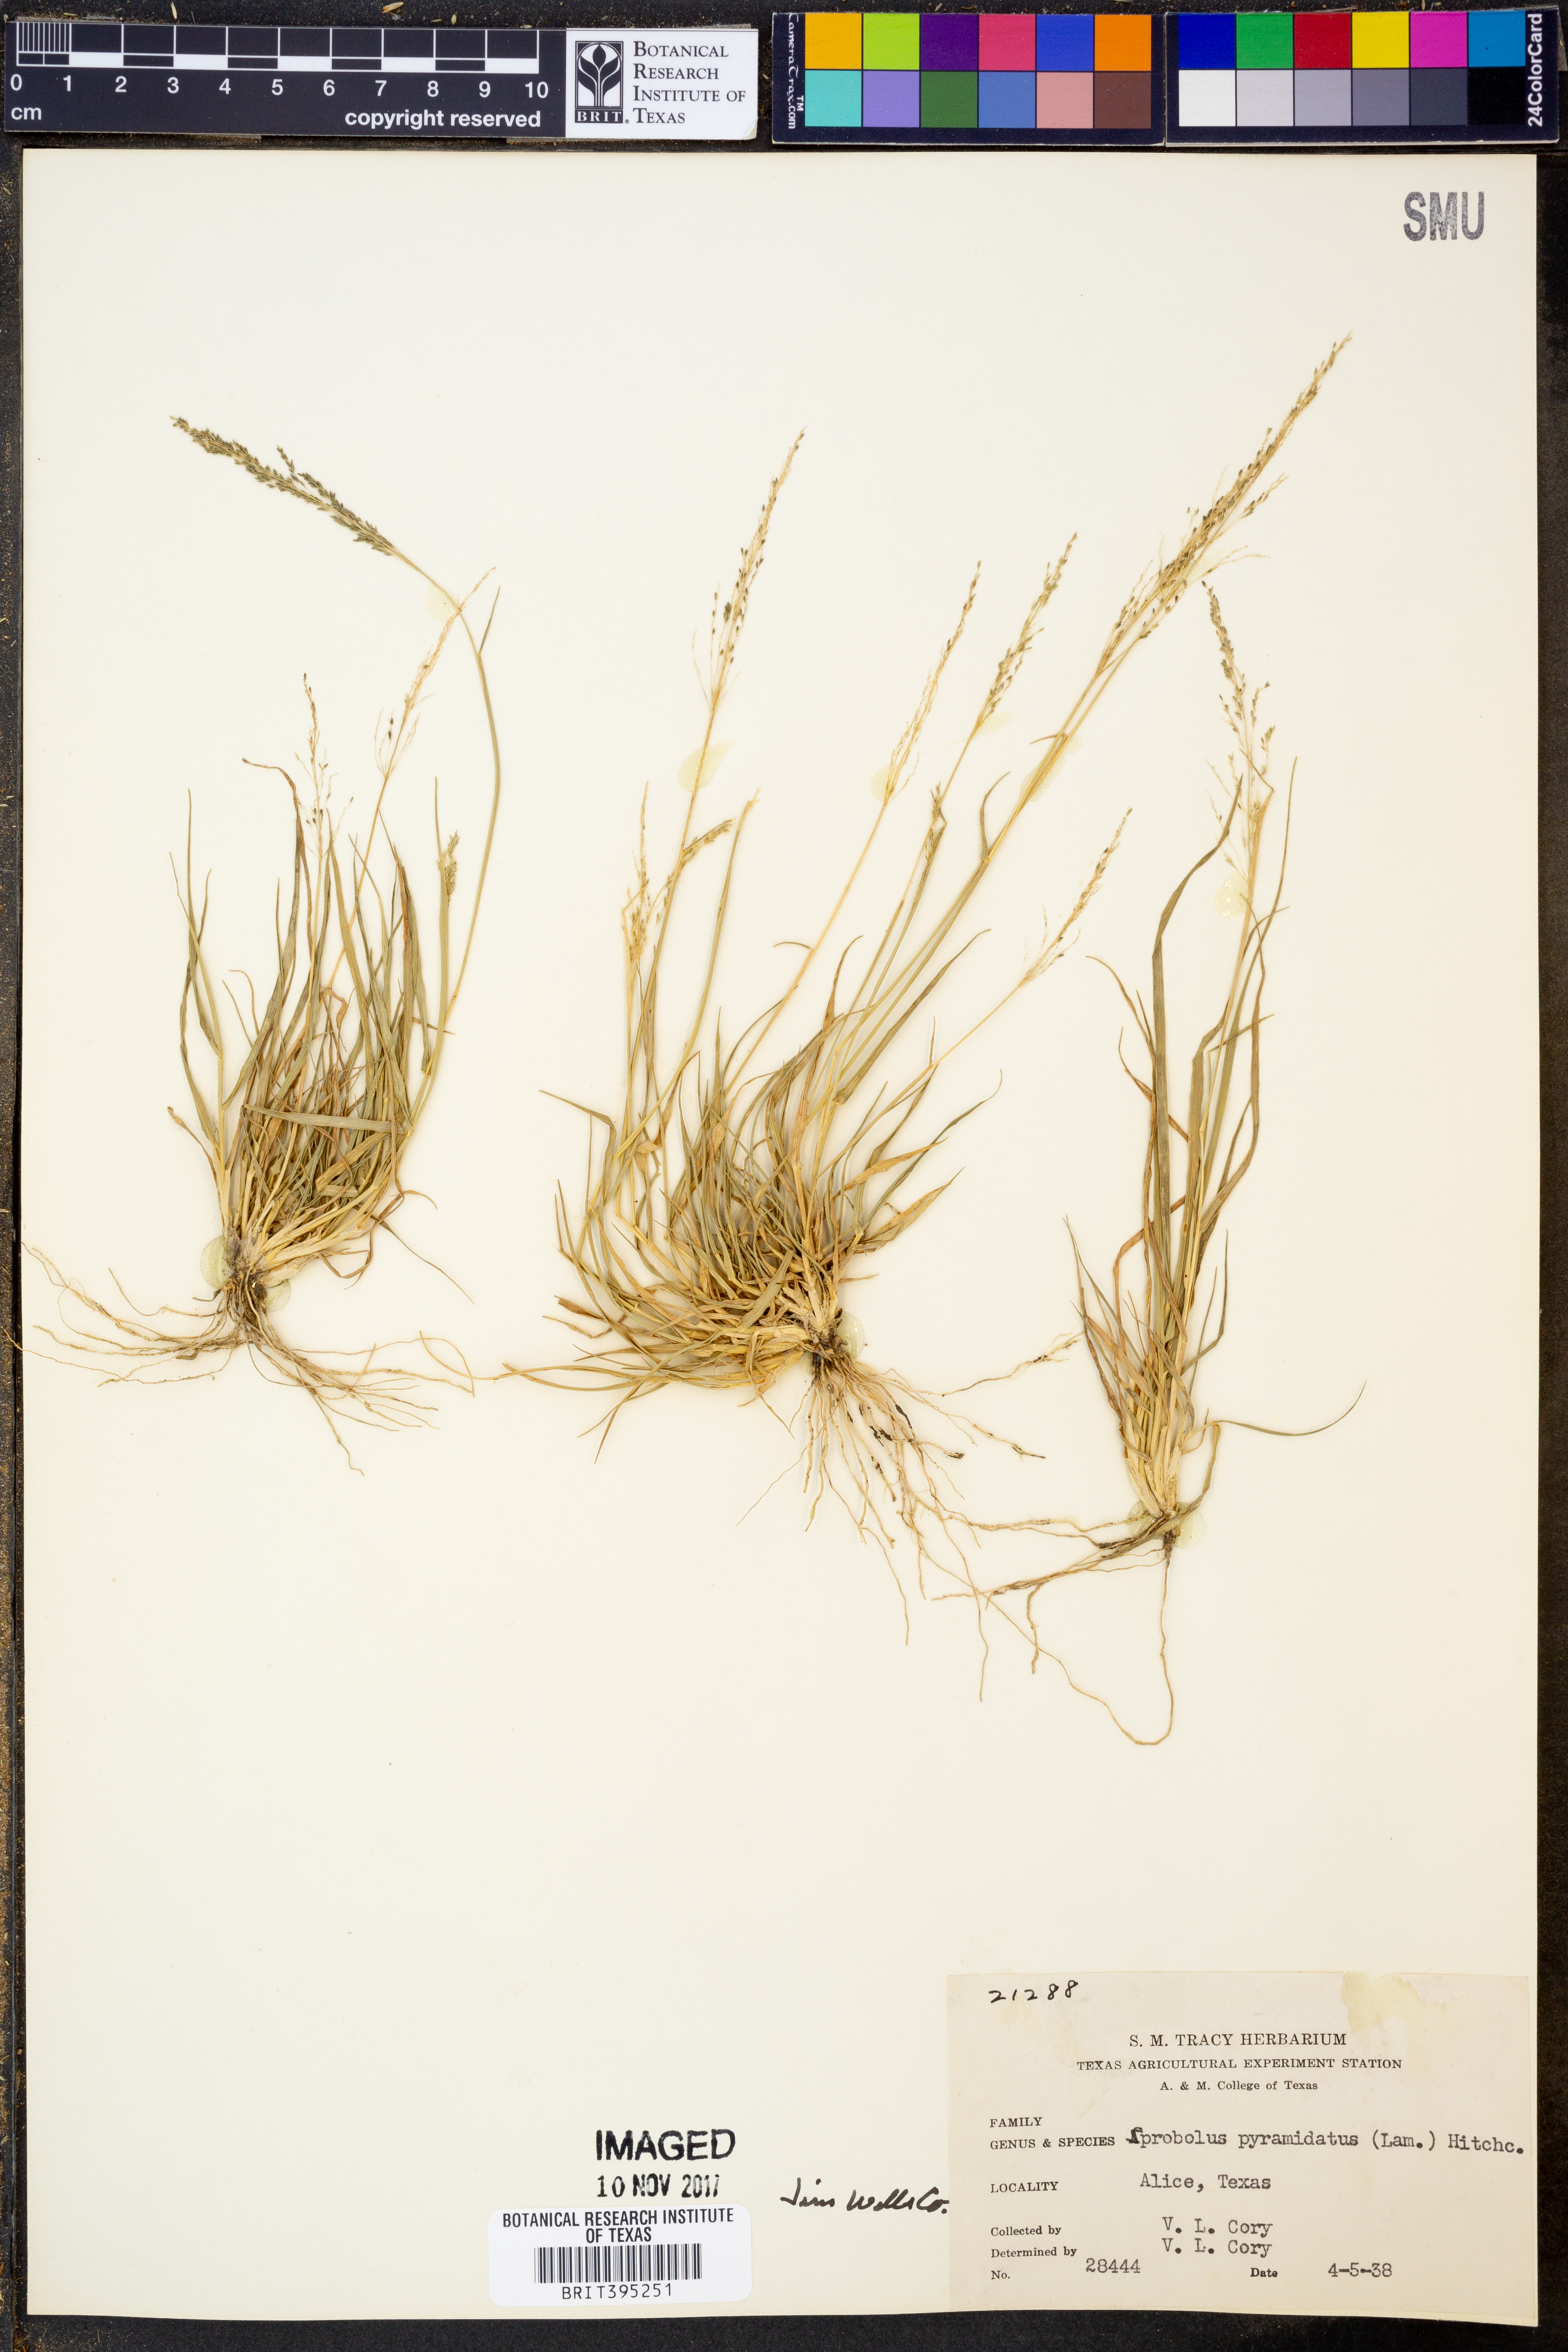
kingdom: Plantae
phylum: Tracheophyta
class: Liliopsida
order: Poales
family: Poaceae
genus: Sporobolus
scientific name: Sporobolus pyramidatus
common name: Whorled dropseed
